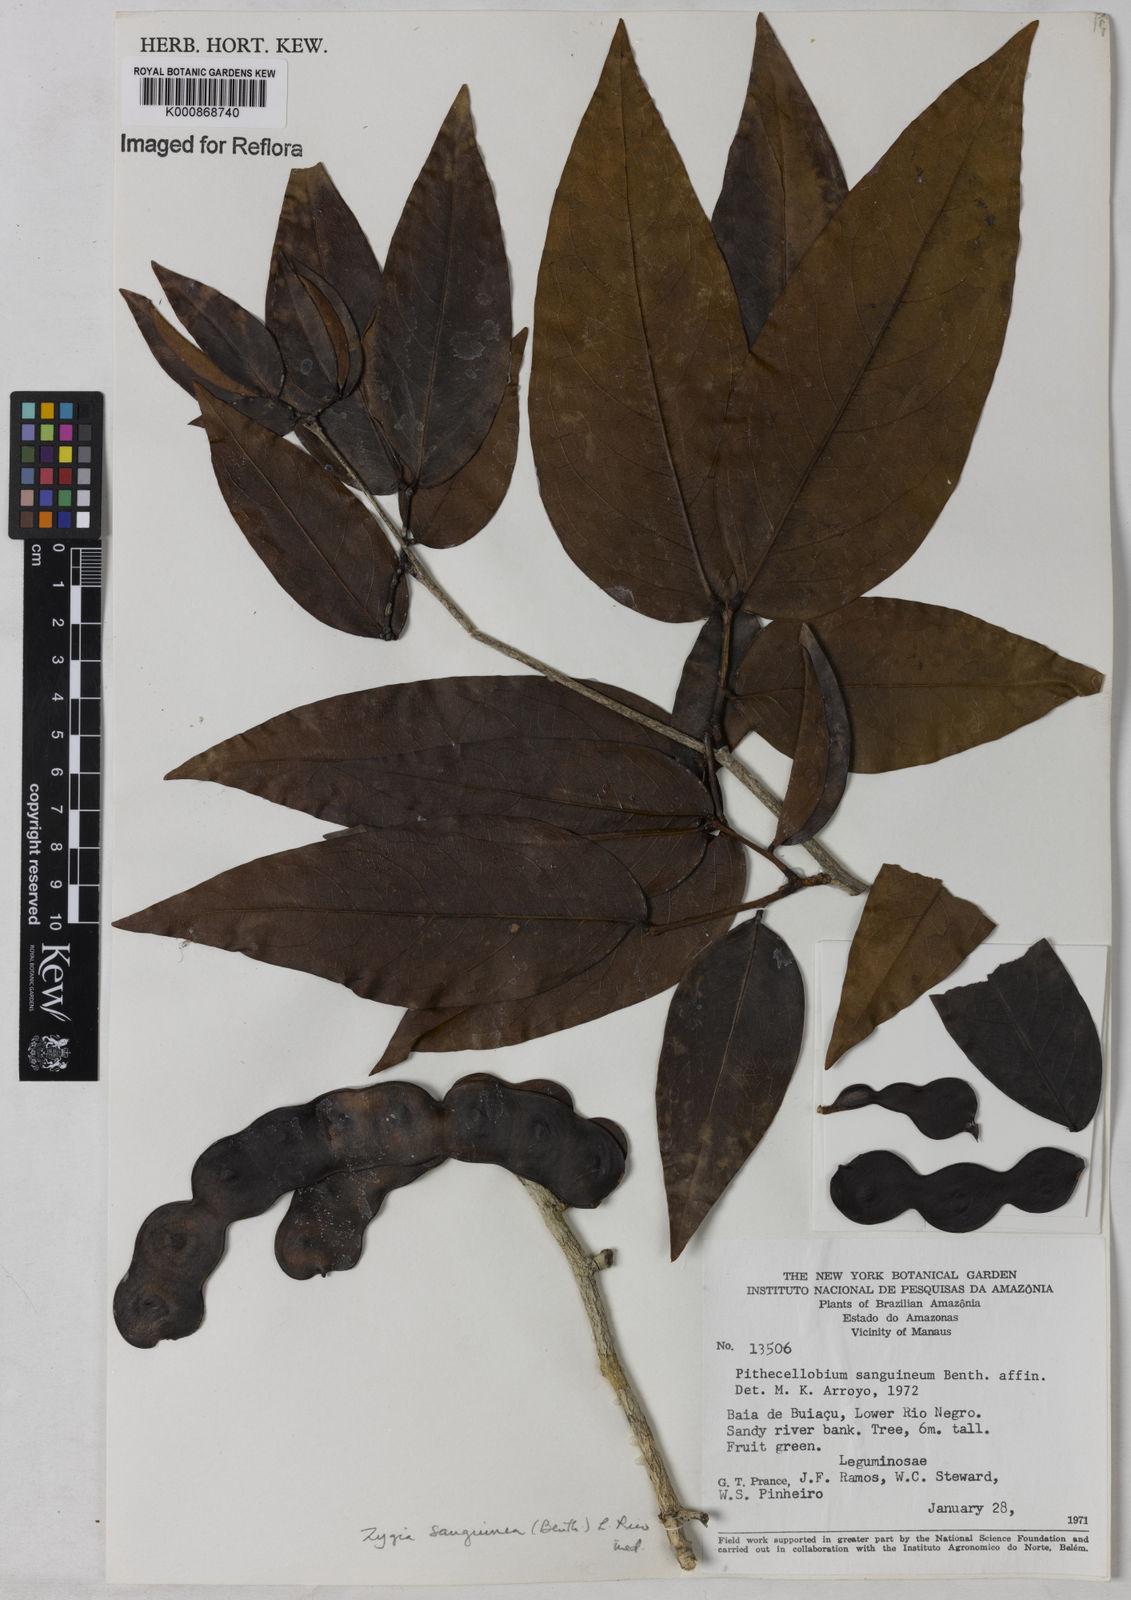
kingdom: Plantae
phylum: Tracheophyta
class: Magnoliopsida
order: Fabales
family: Fabaceae
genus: Zygia
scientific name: Zygia selloi
